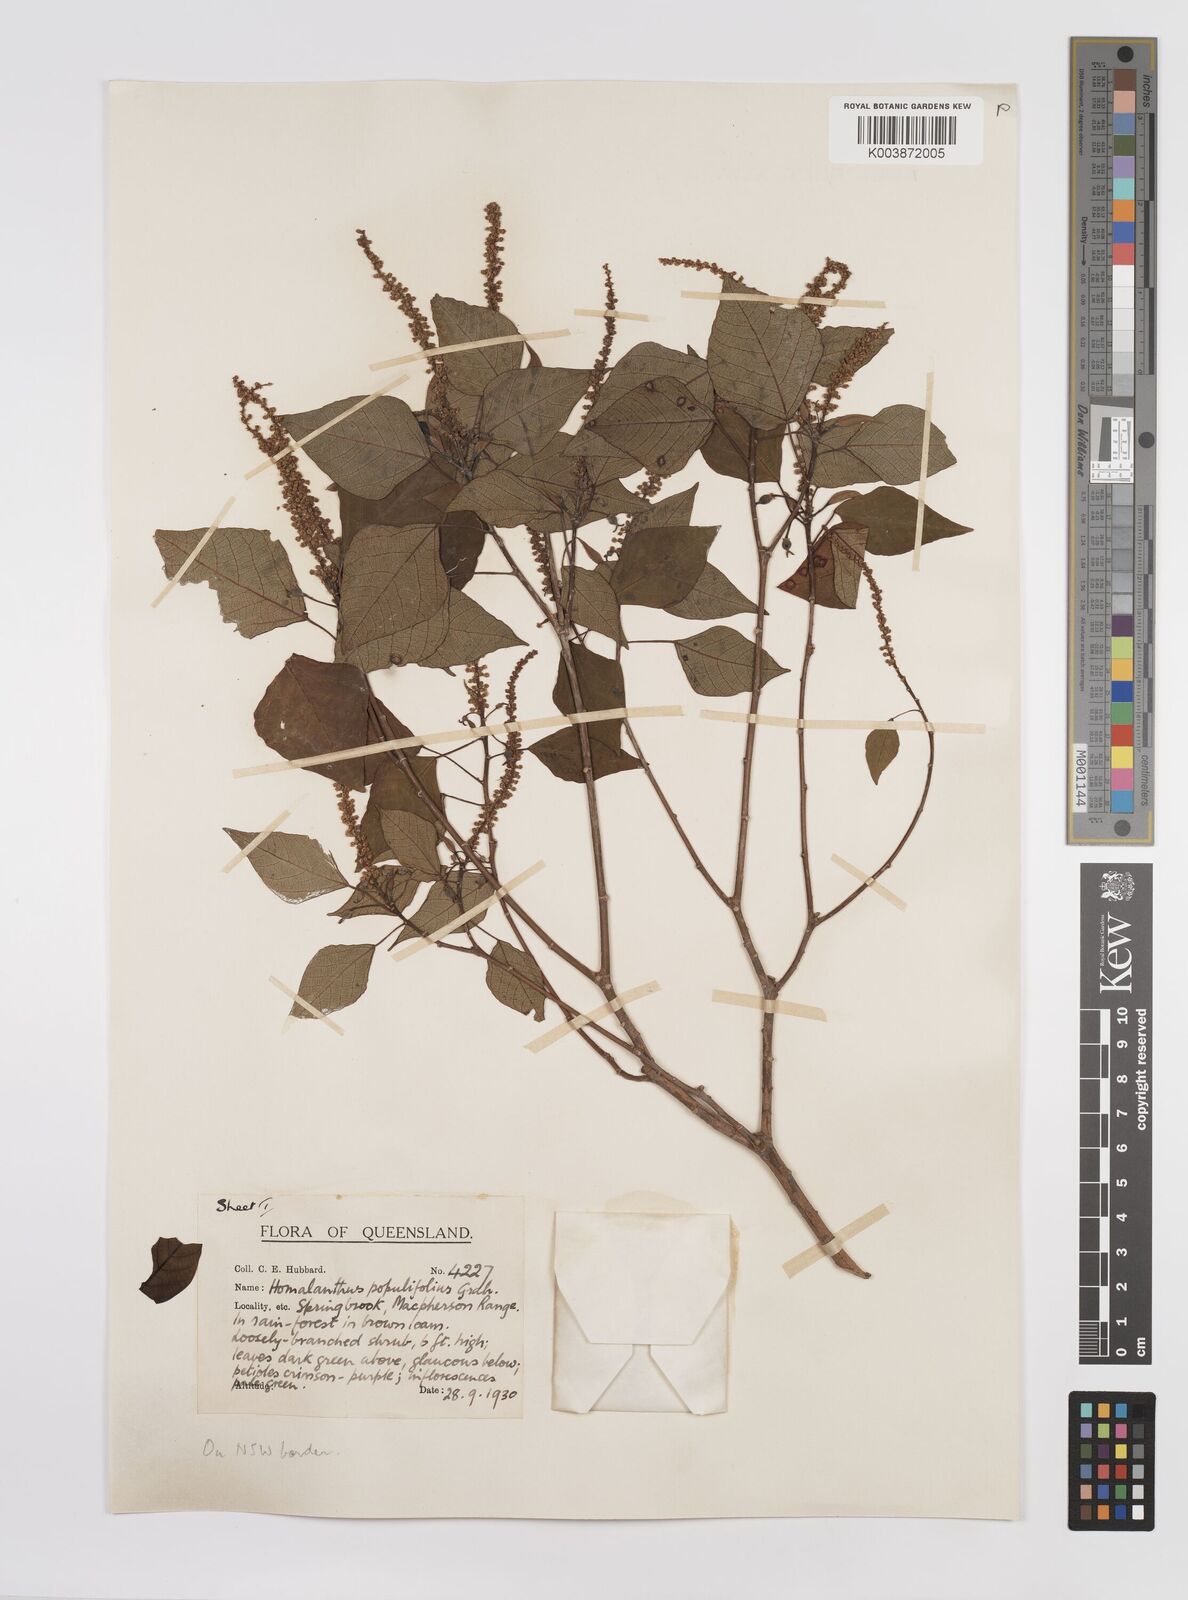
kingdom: Plantae
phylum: Tracheophyta
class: Magnoliopsida
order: Malpighiales
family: Euphorbiaceae
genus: Homalanthus
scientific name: Homalanthus populifolius
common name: Queensland poplar
